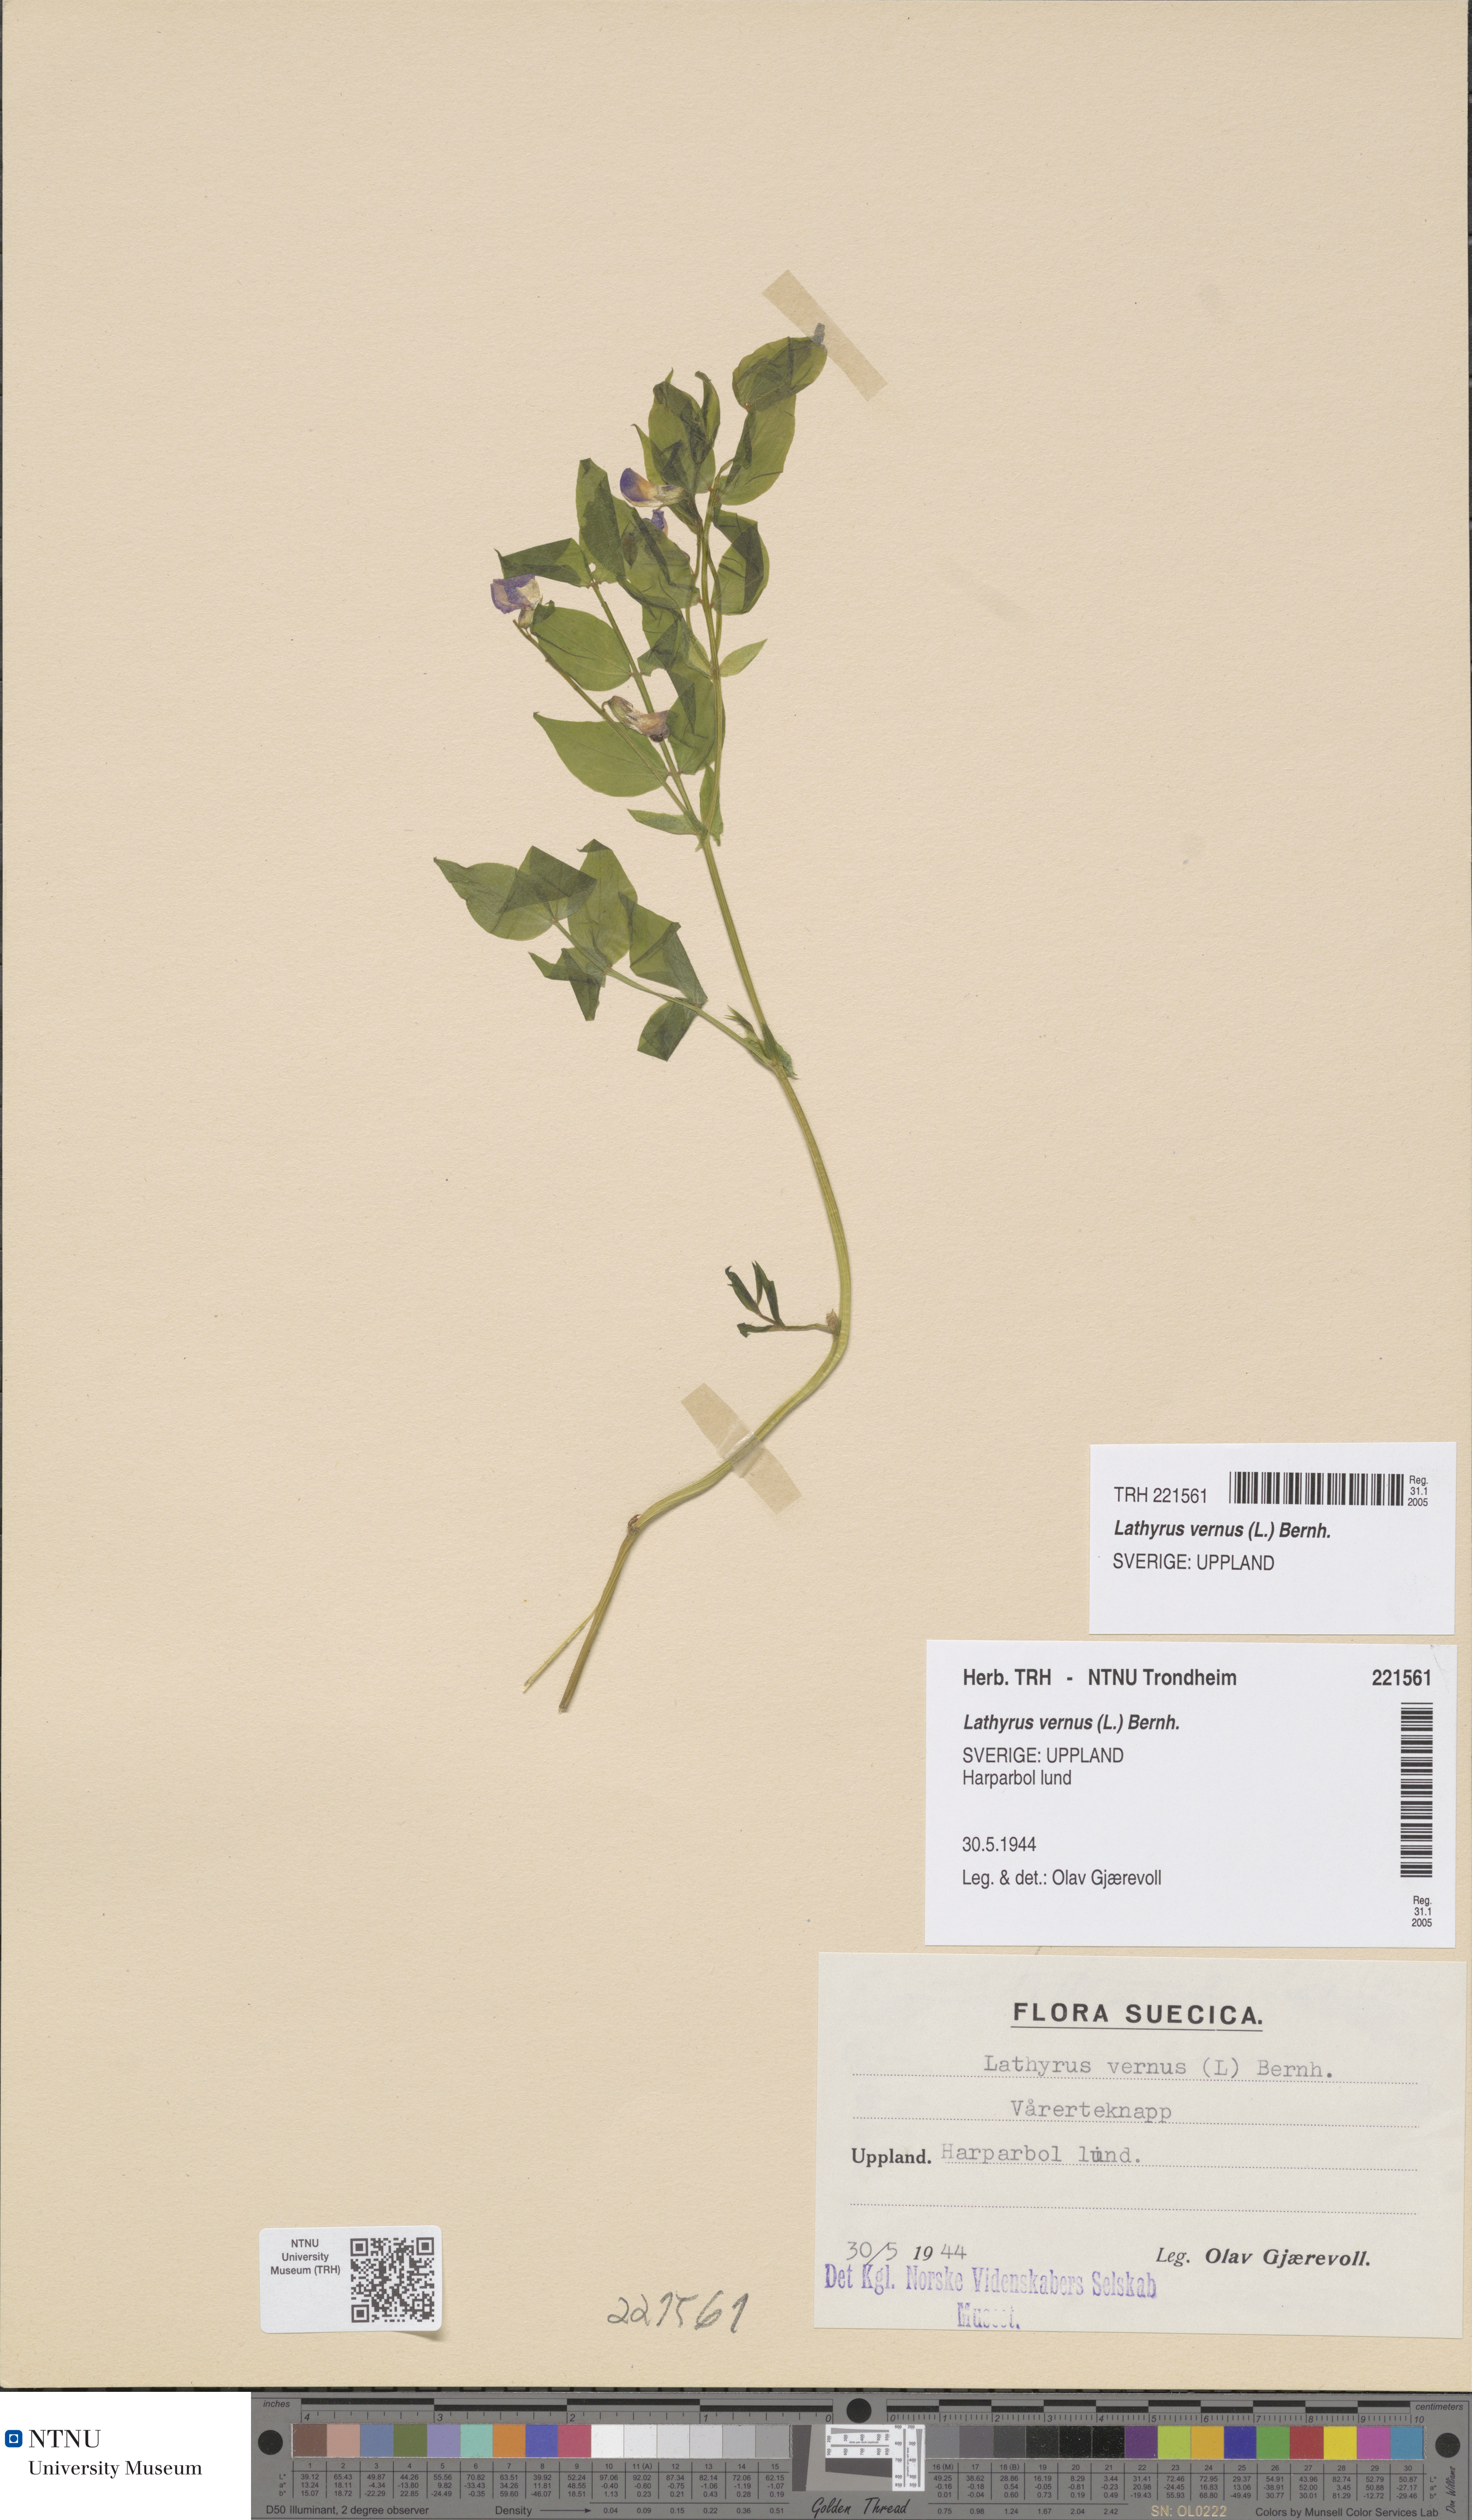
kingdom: Plantae
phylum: Tracheophyta
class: Magnoliopsida
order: Fabales
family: Fabaceae
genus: Lathyrus
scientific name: Lathyrus vernus
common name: Spring pea
